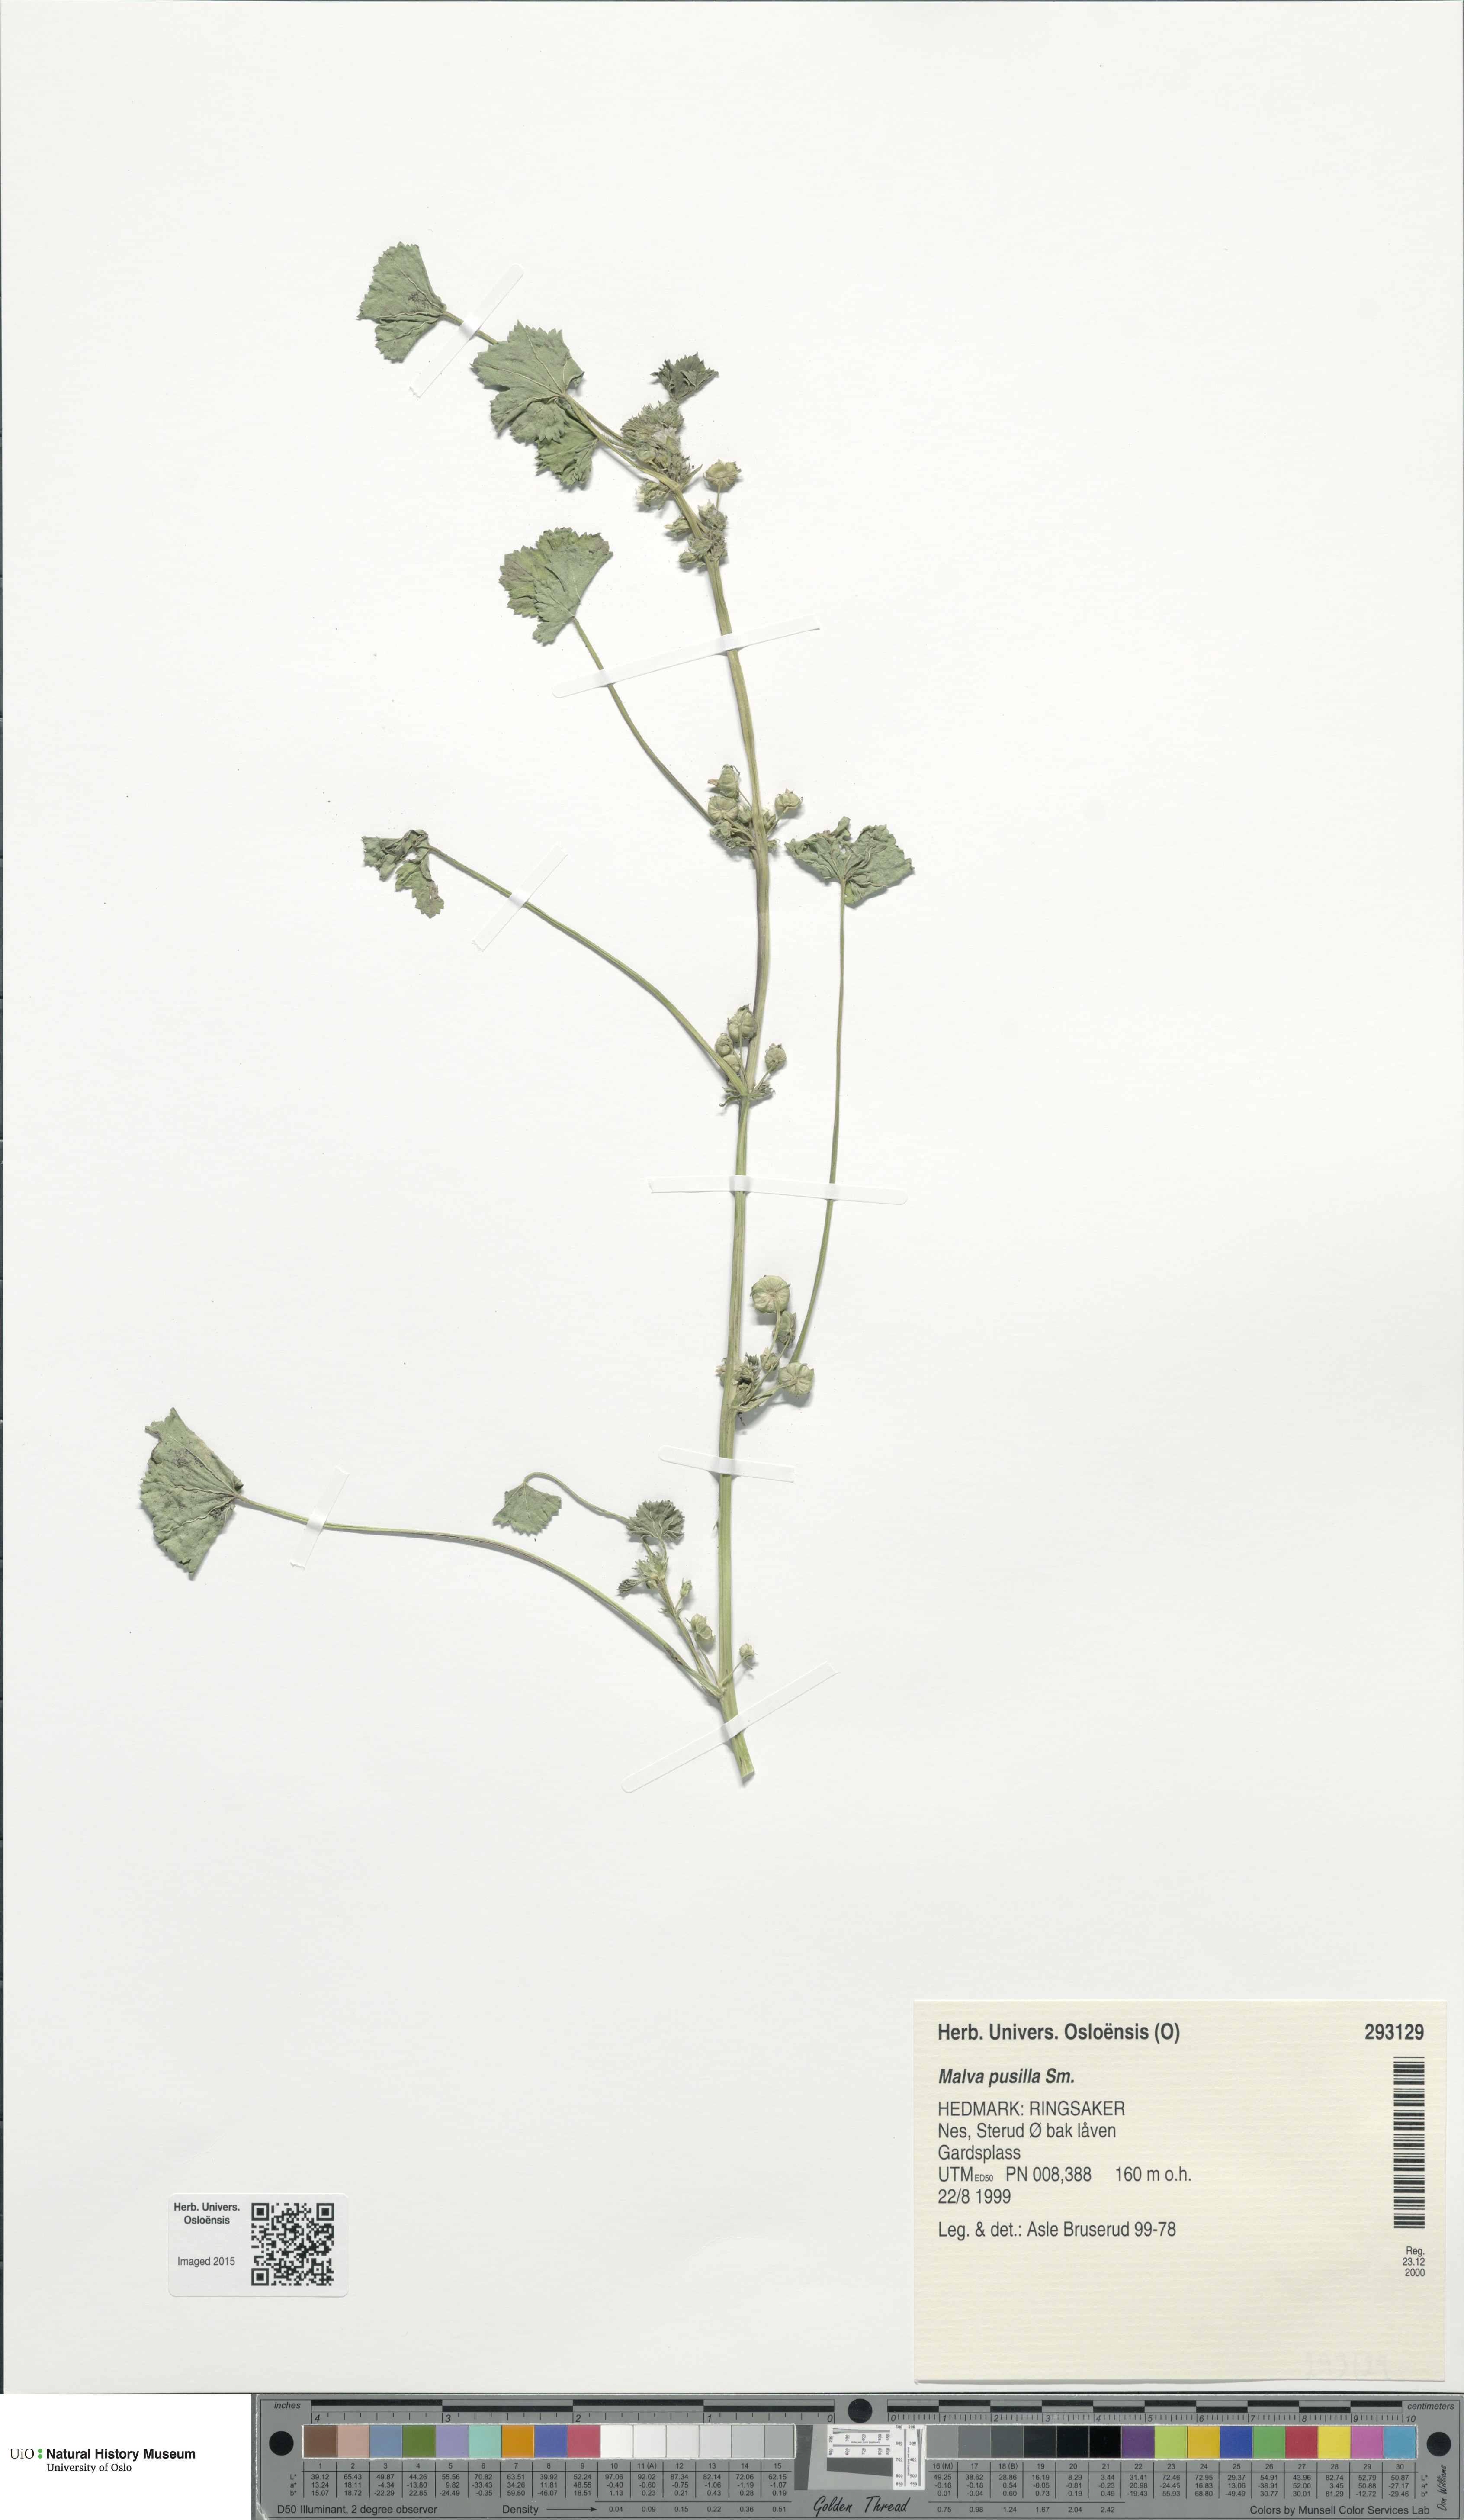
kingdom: Plantae
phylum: Tracheophyta
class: Magnoliopsida
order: Malvales
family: Malvaceae
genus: Malva
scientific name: Malva pusilla
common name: Small mallow
